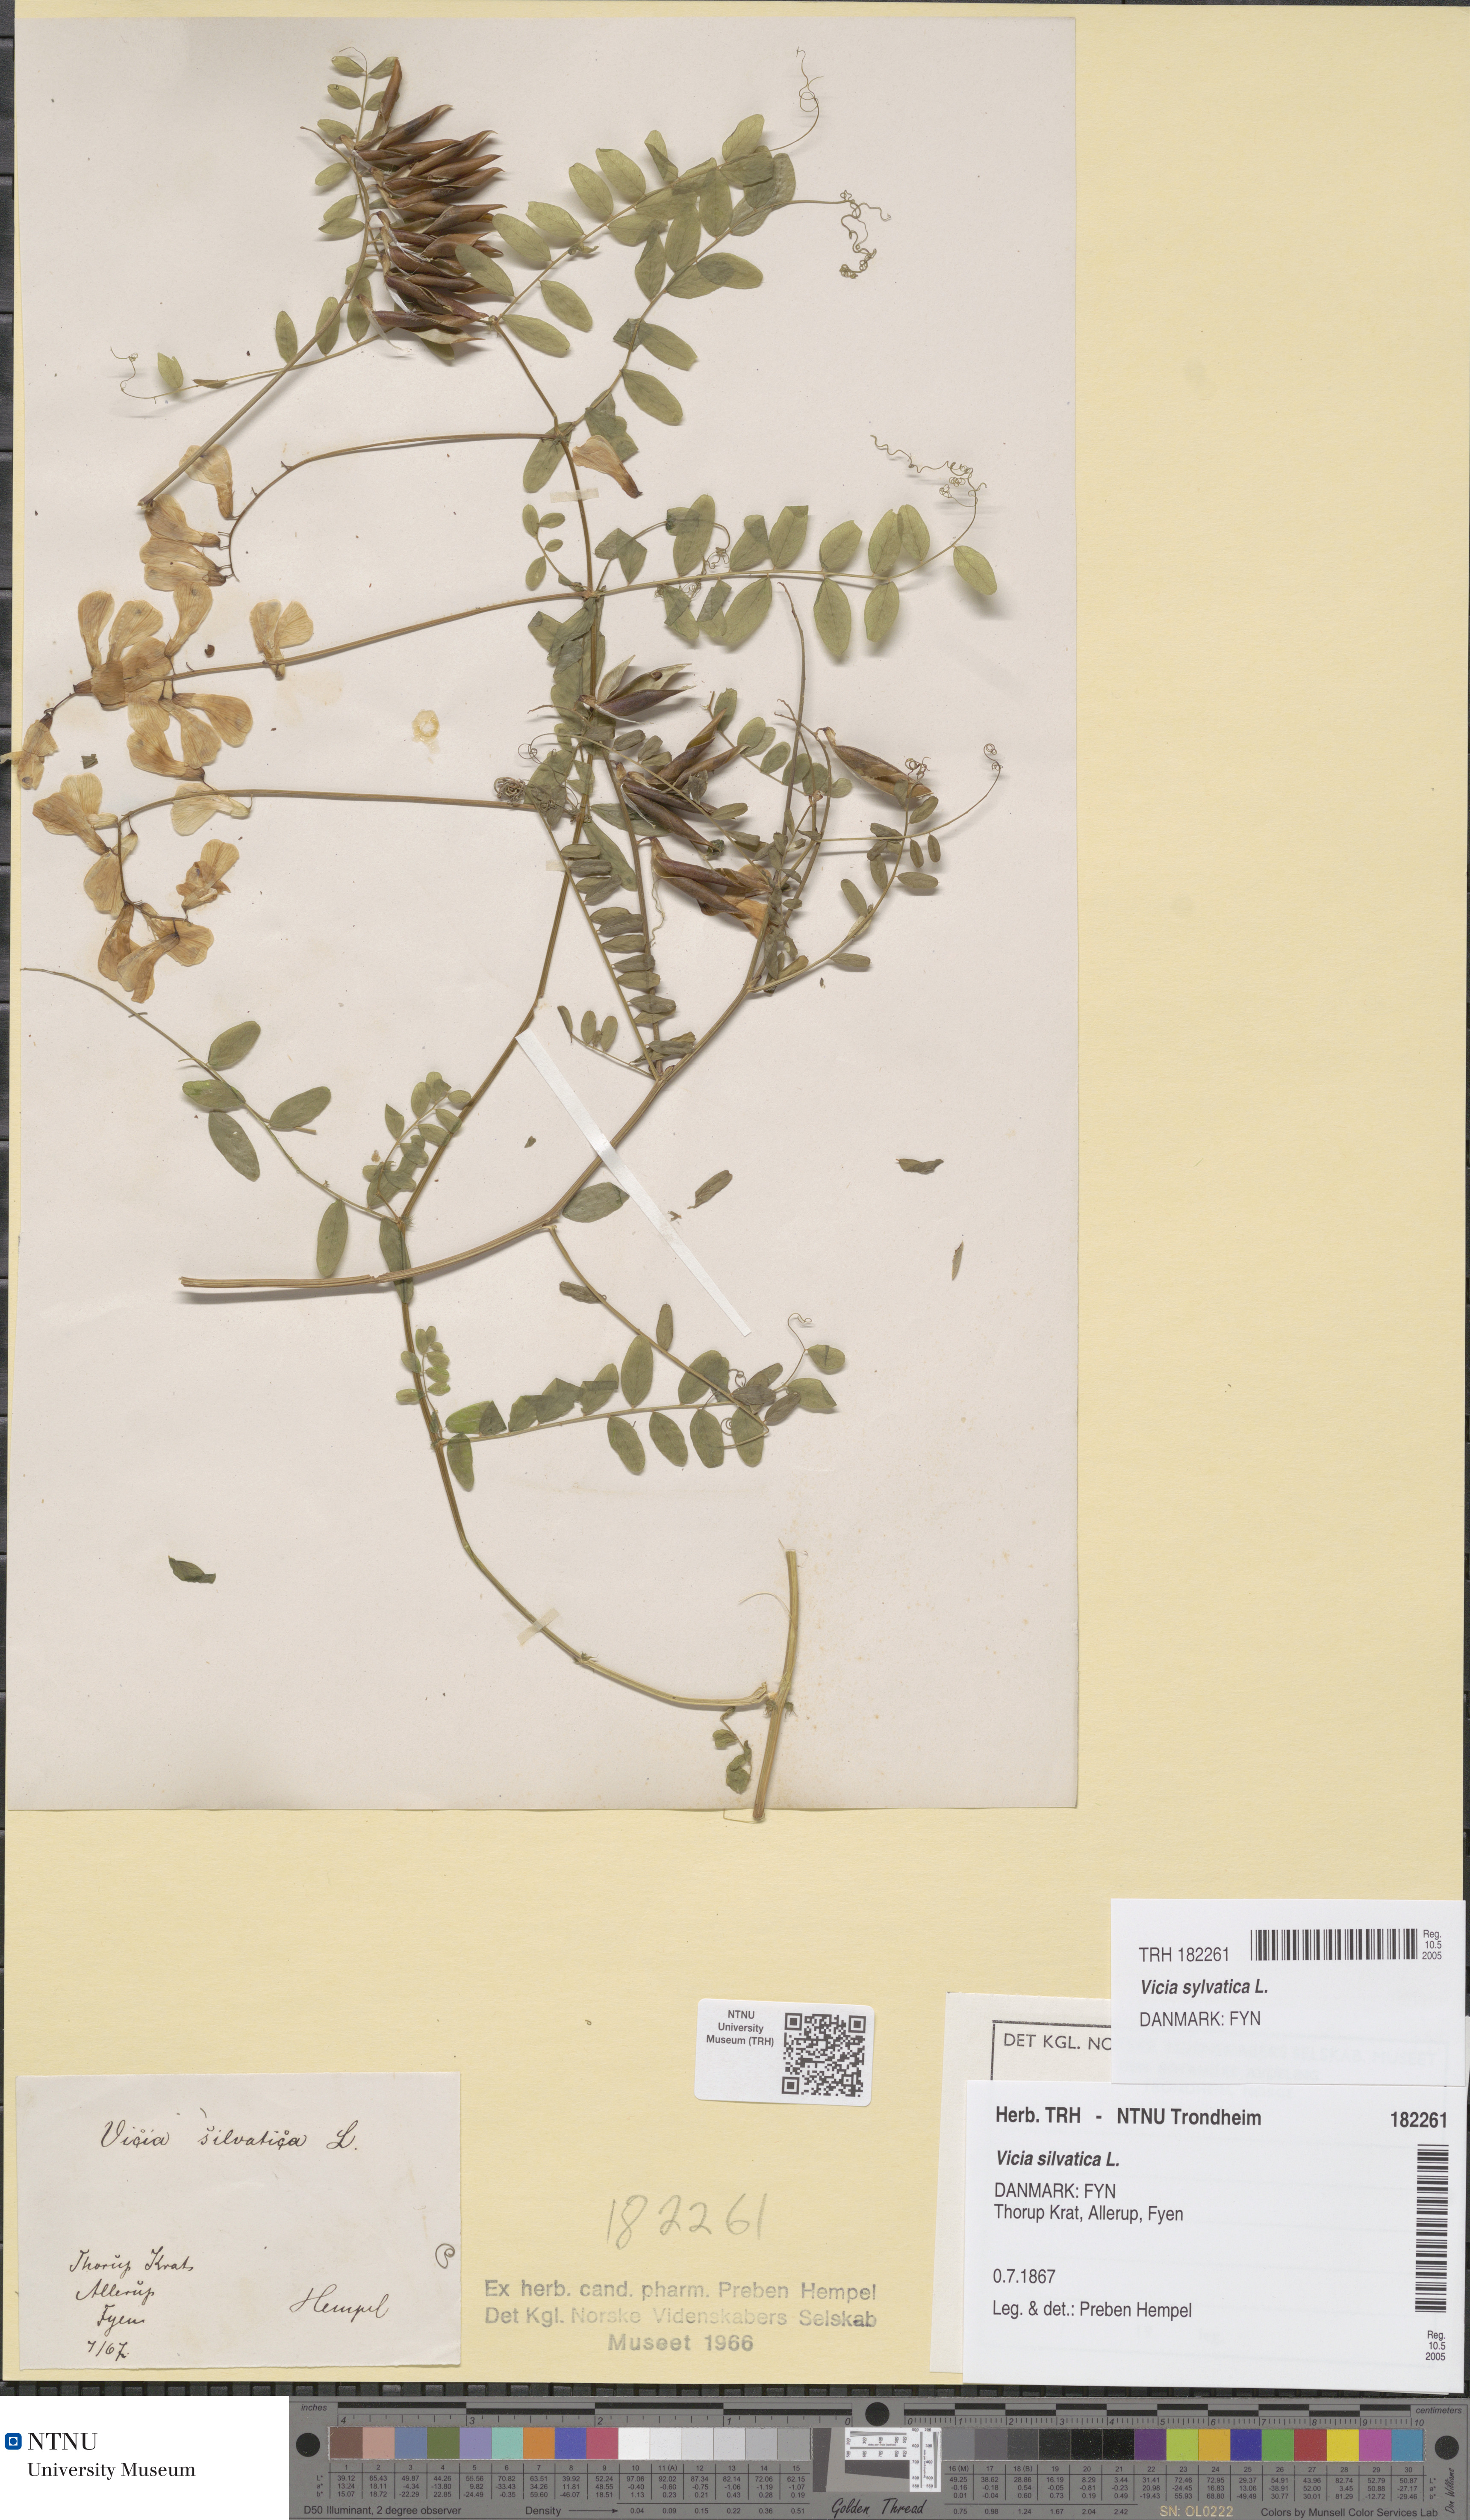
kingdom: Plantae
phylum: Tracheophyta
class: Magnoliopsida
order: Fabales
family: Fabaceae
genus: Vicia
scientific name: Vicia sylvatica
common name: Wood vetch
